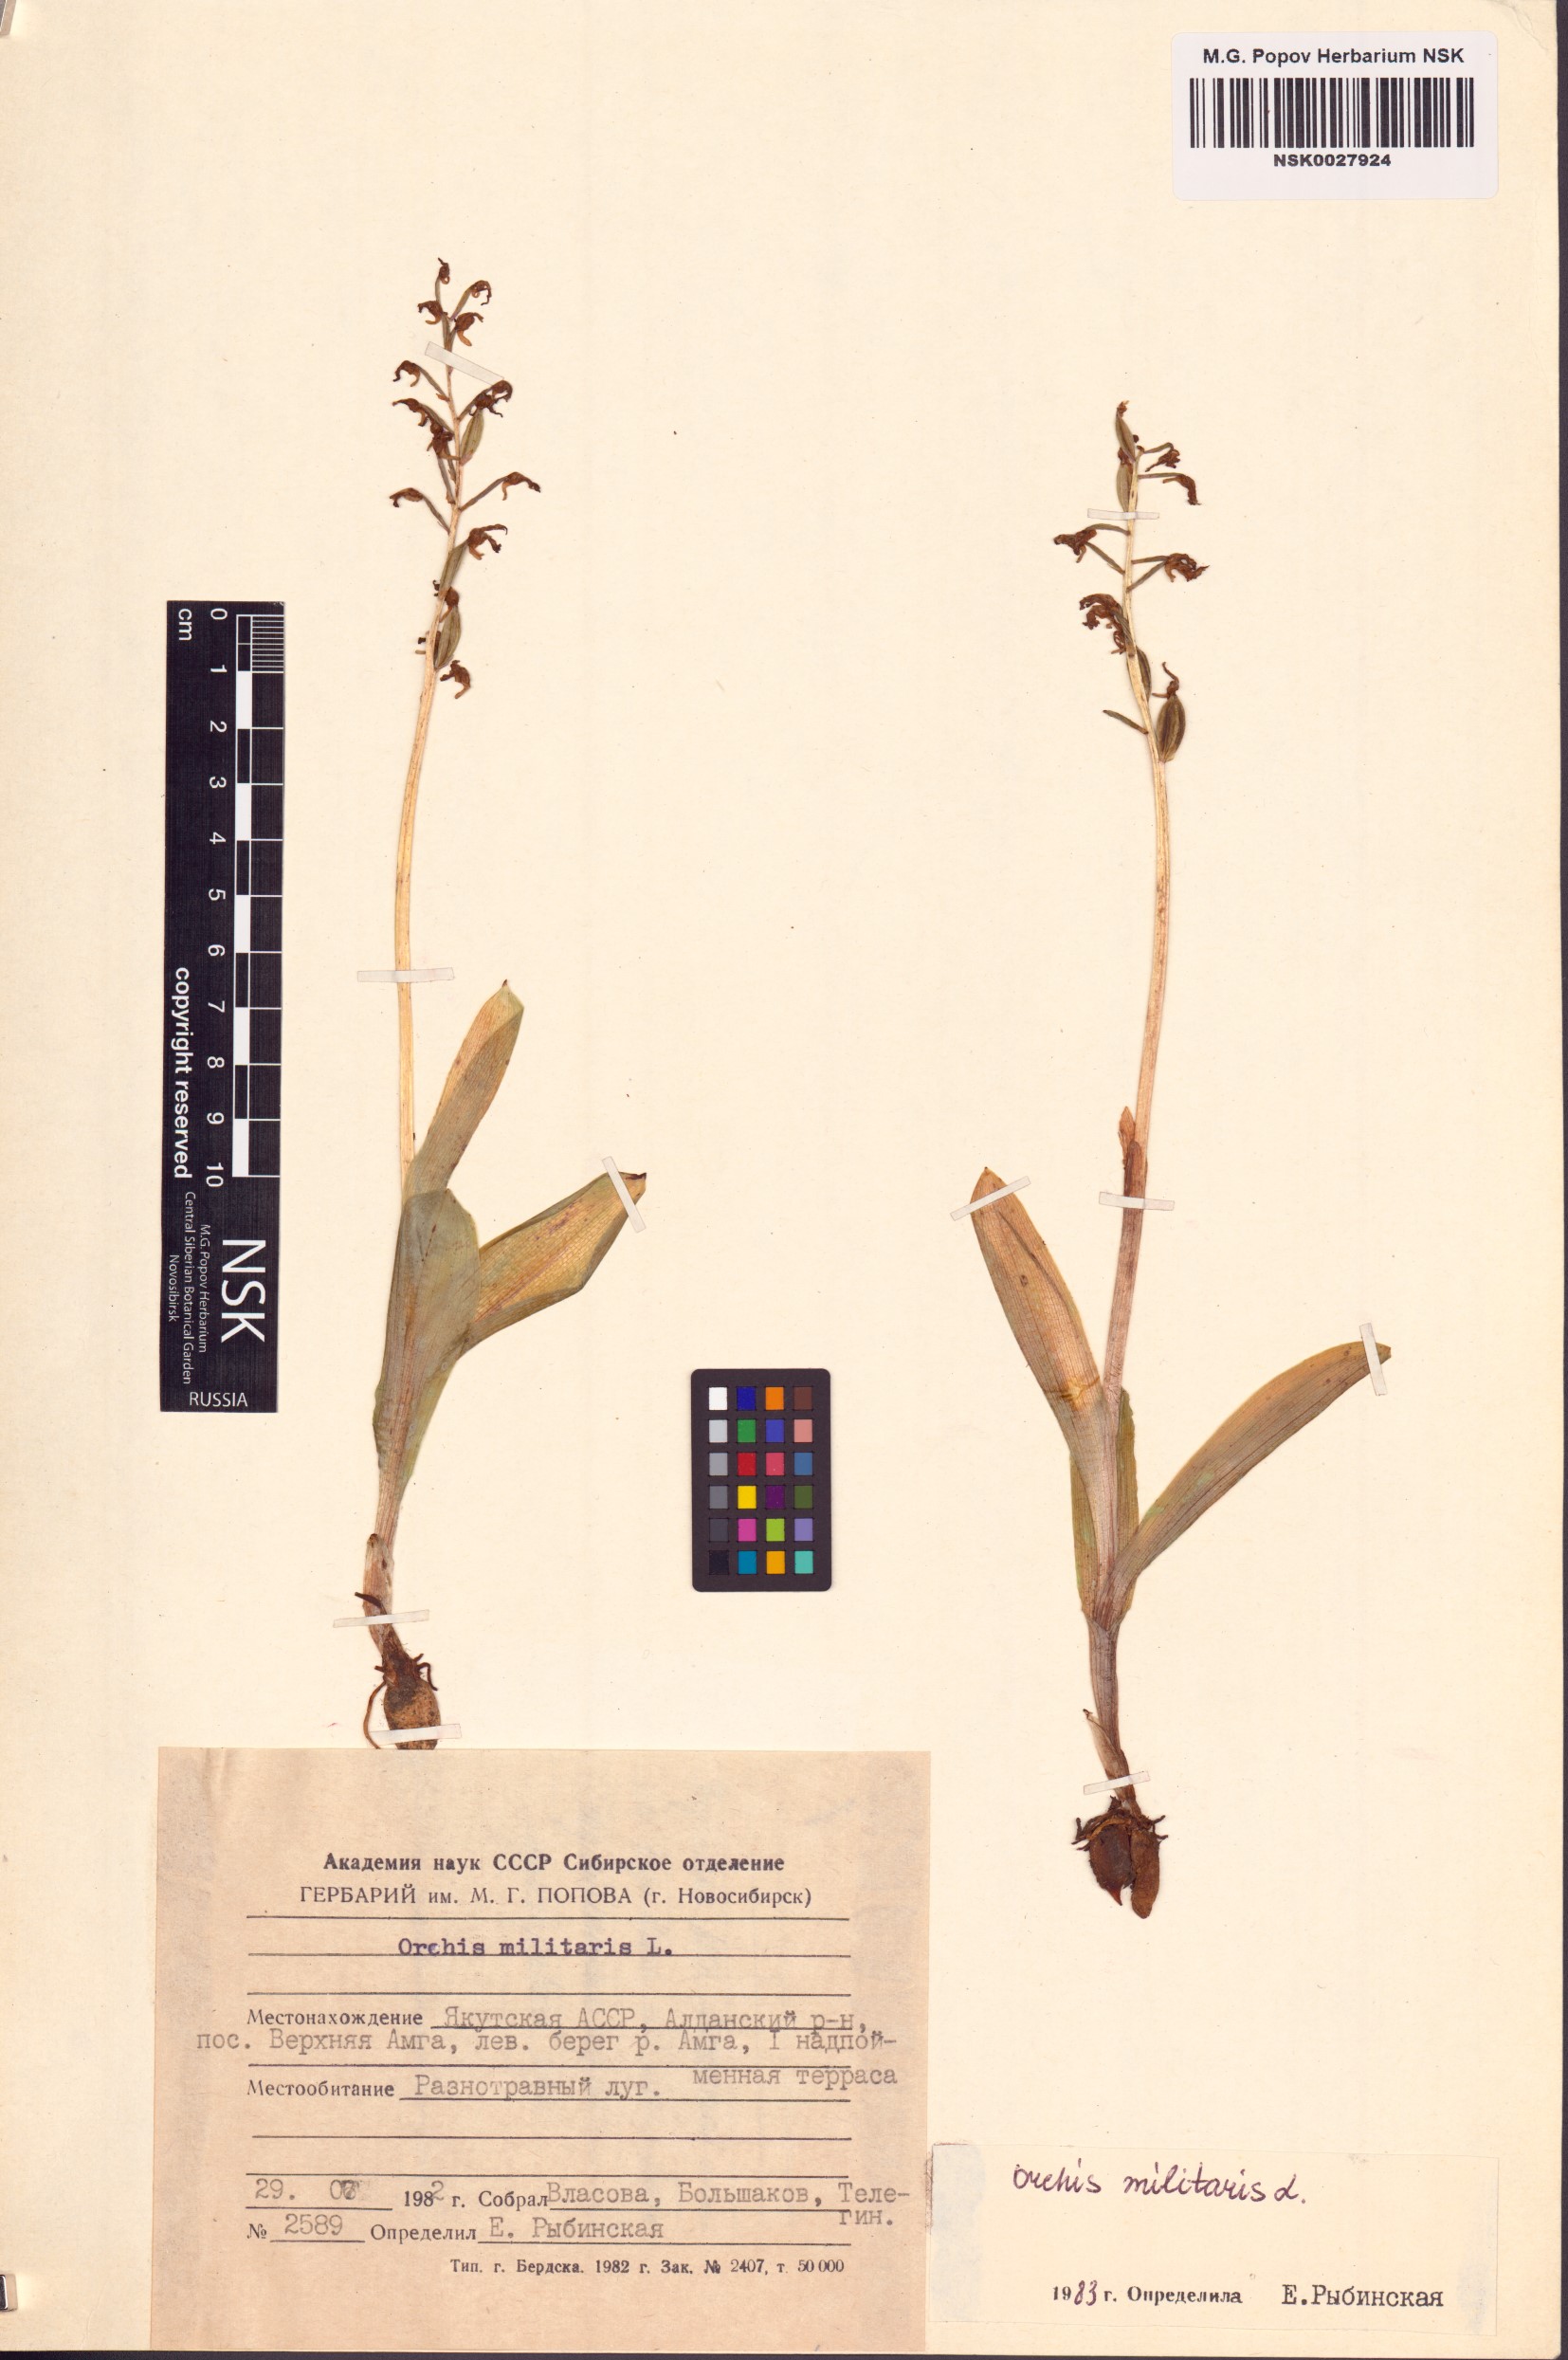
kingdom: Plantae
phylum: Tracheophyta
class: Liliopsida
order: Asparagales
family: Orchidaceae
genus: Orchis
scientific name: Orchis militaris
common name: Military orchid
